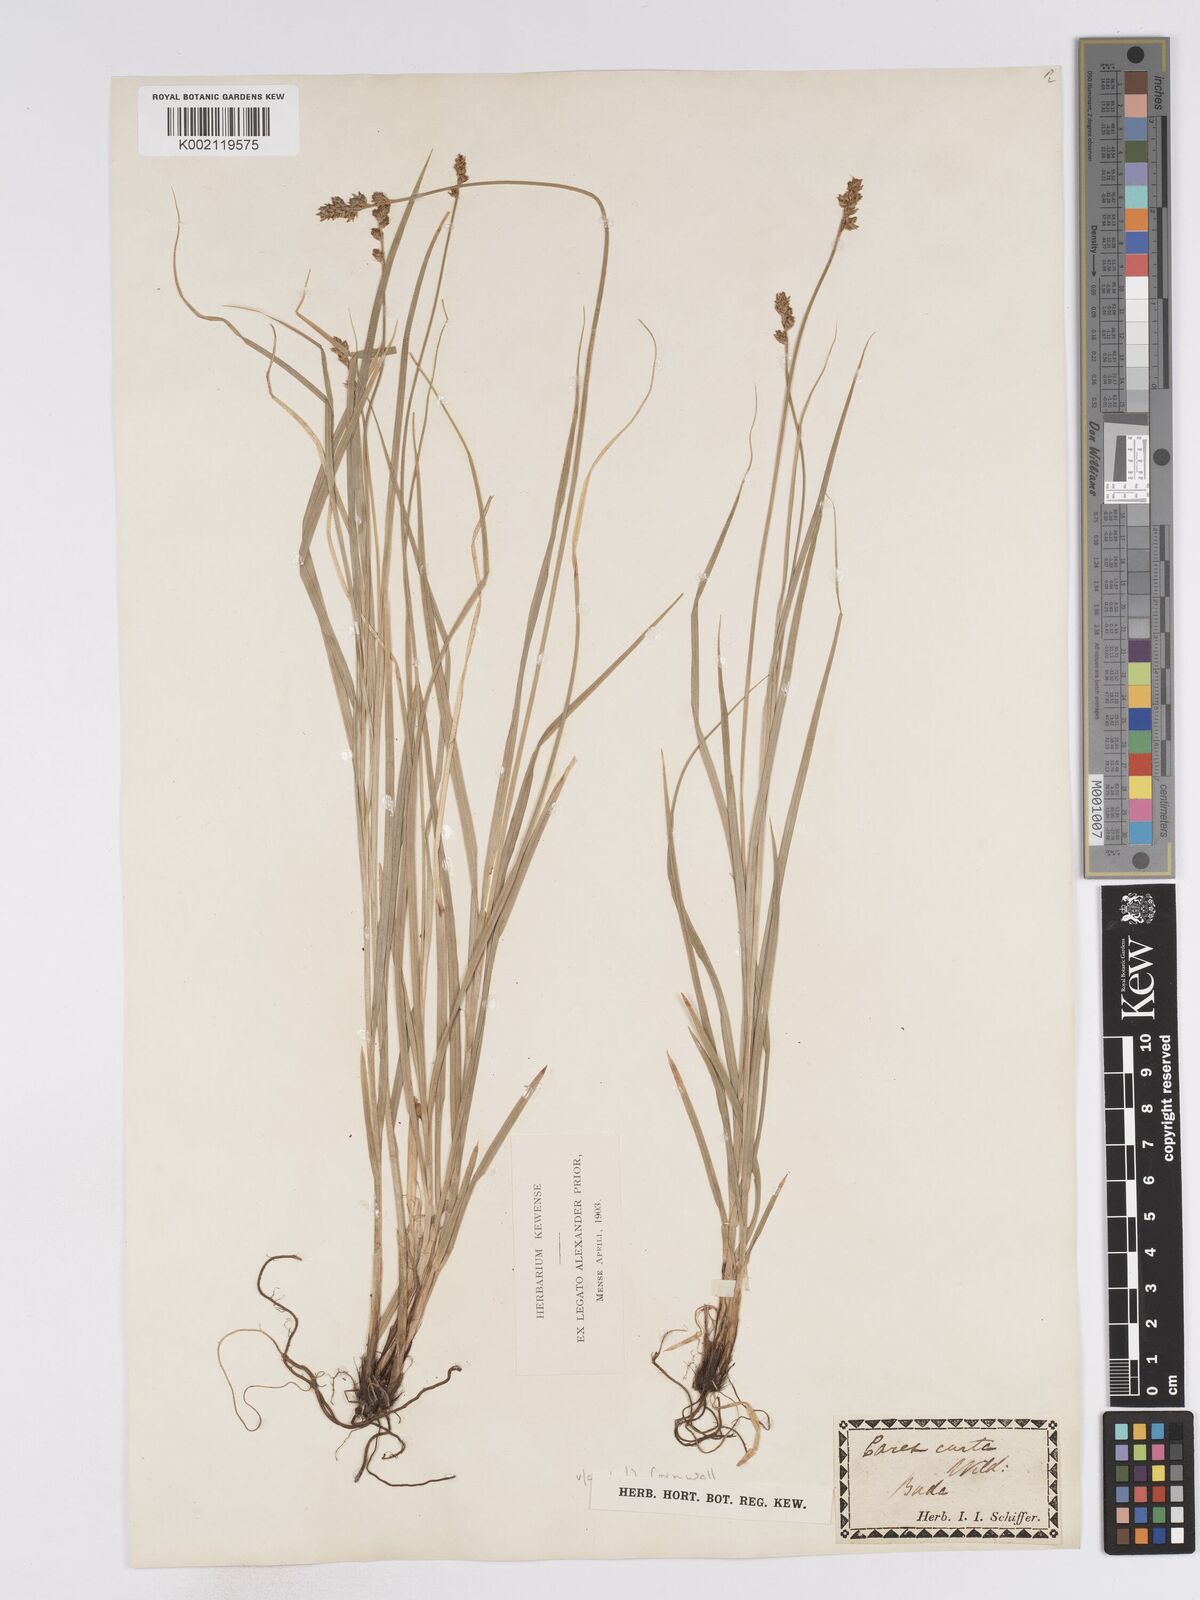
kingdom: Plantae
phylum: Tracheophyta
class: Liliopsida
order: Poales
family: Cyperaceae
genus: Carex
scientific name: Carex curta
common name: White sedge
